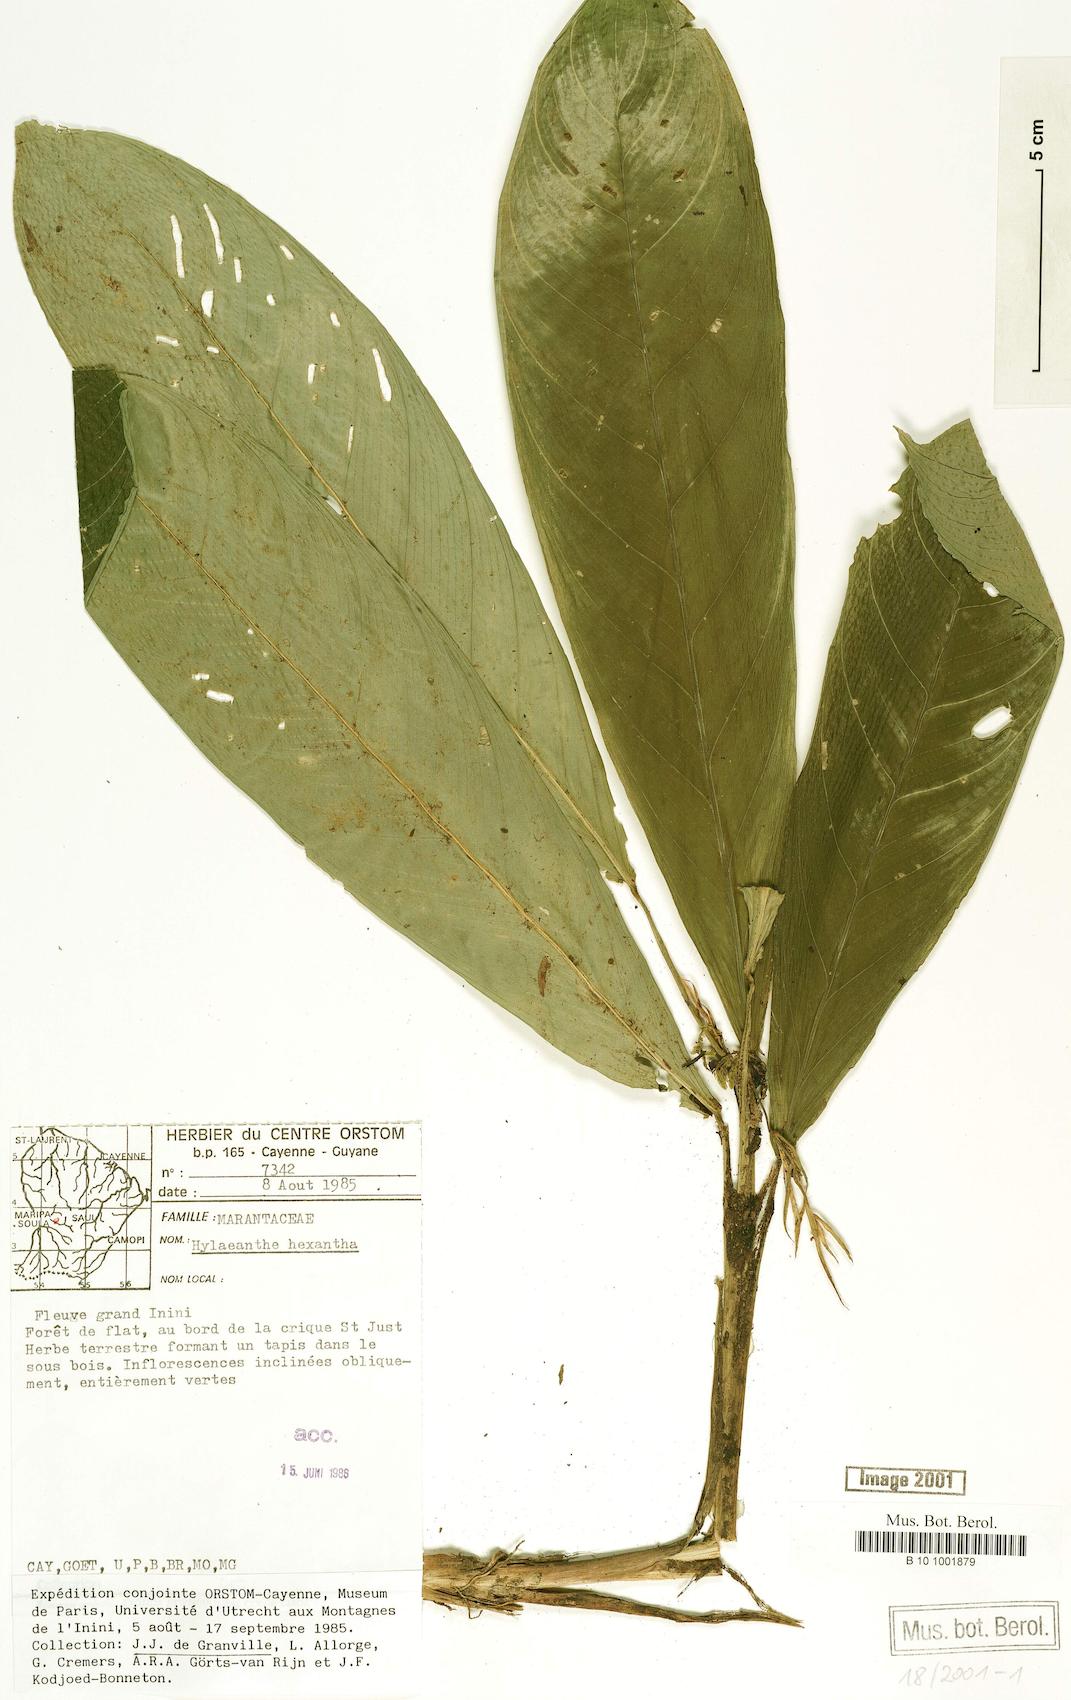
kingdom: Plantae
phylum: Tracheophyta
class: Liliopsida
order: Zingiberales
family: Marantaceae
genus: Hylaeanthe
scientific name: Hylaeanthe hexantha
